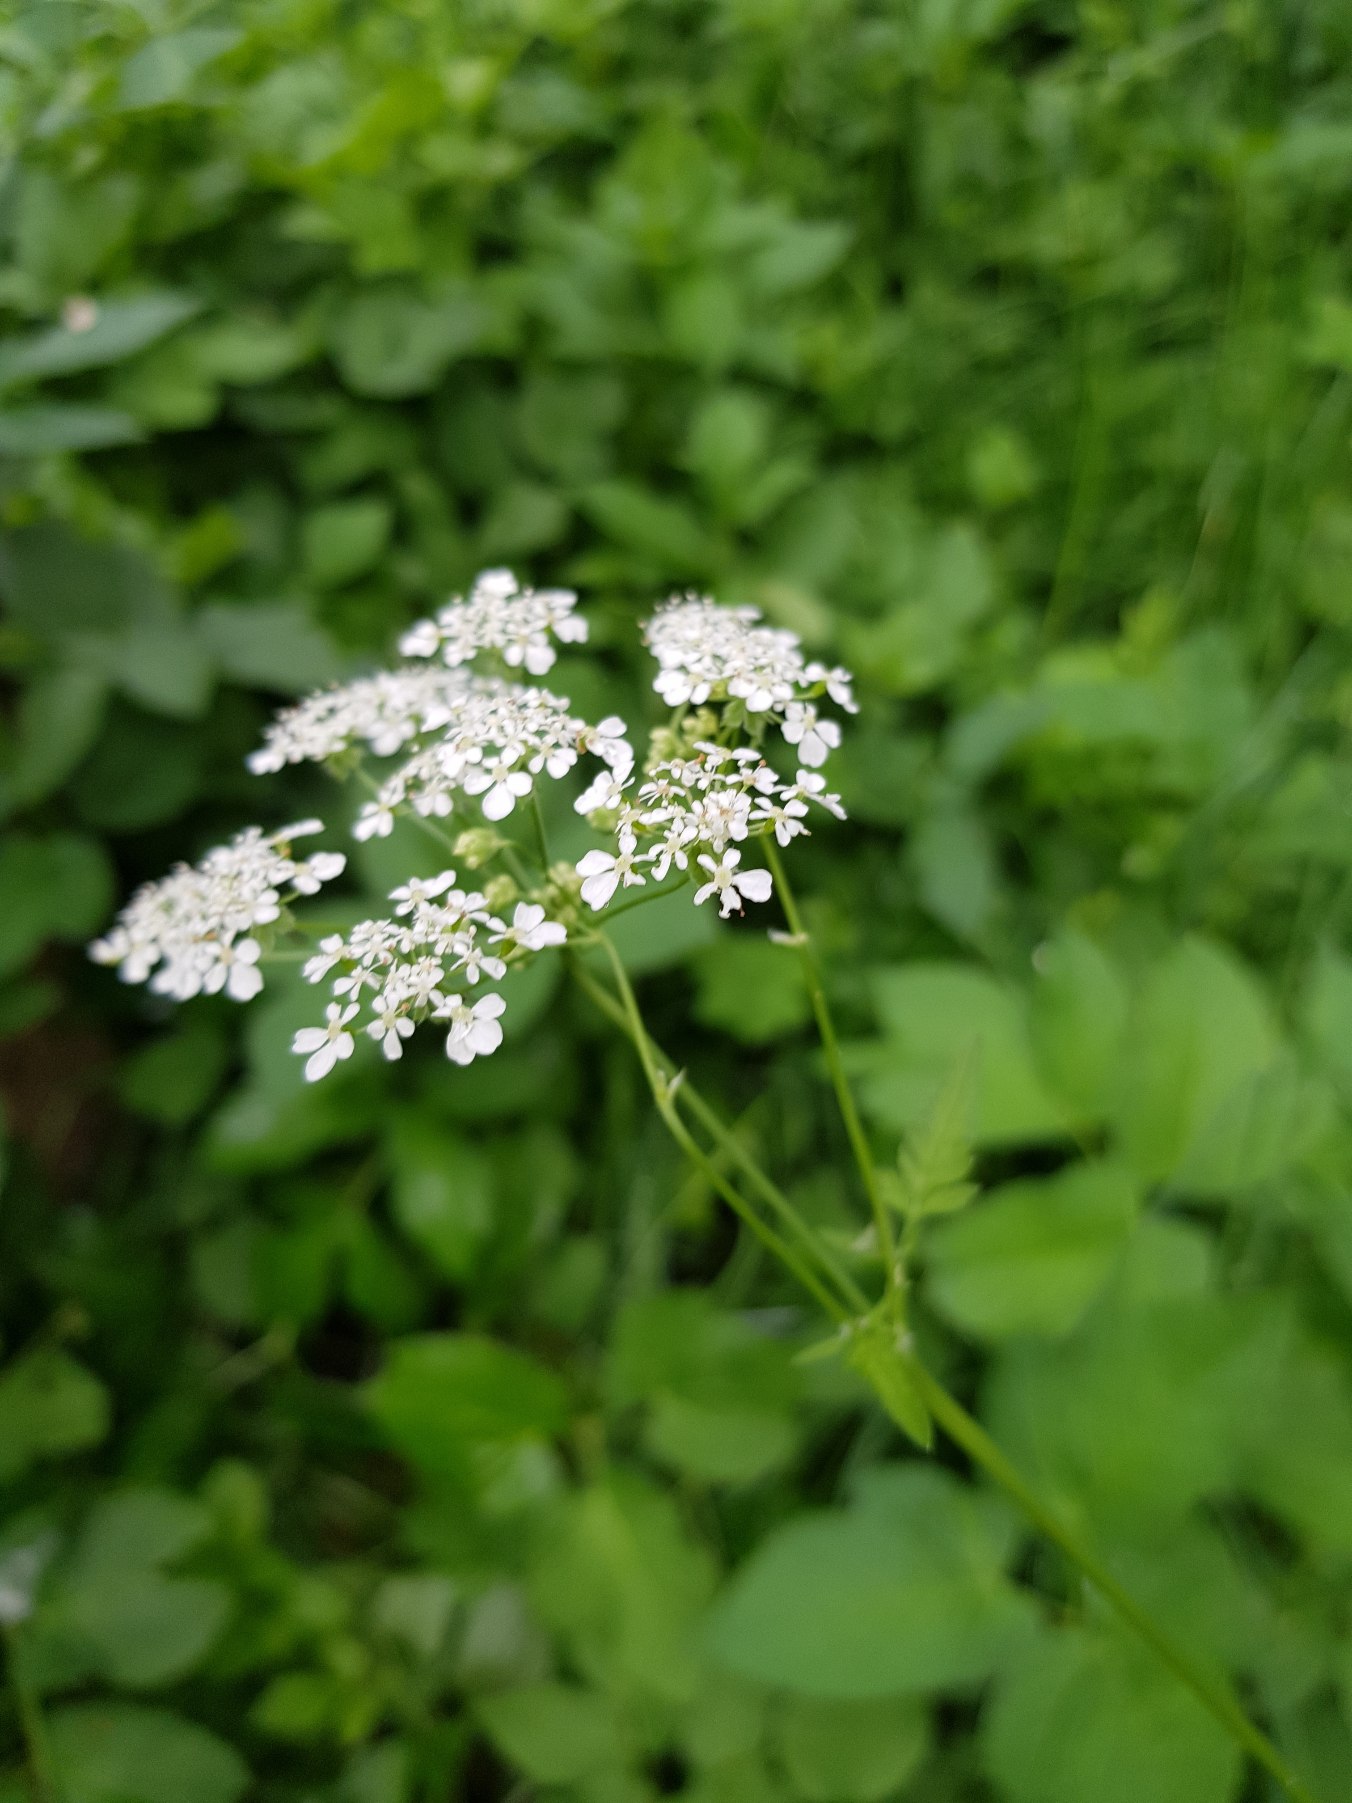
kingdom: Plantae
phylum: Tracheophyta
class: Magnoliopsida
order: Apiales
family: Apiaceae
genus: Anthriscus
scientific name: Anthriscus sylvestris
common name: Vild kørvel
